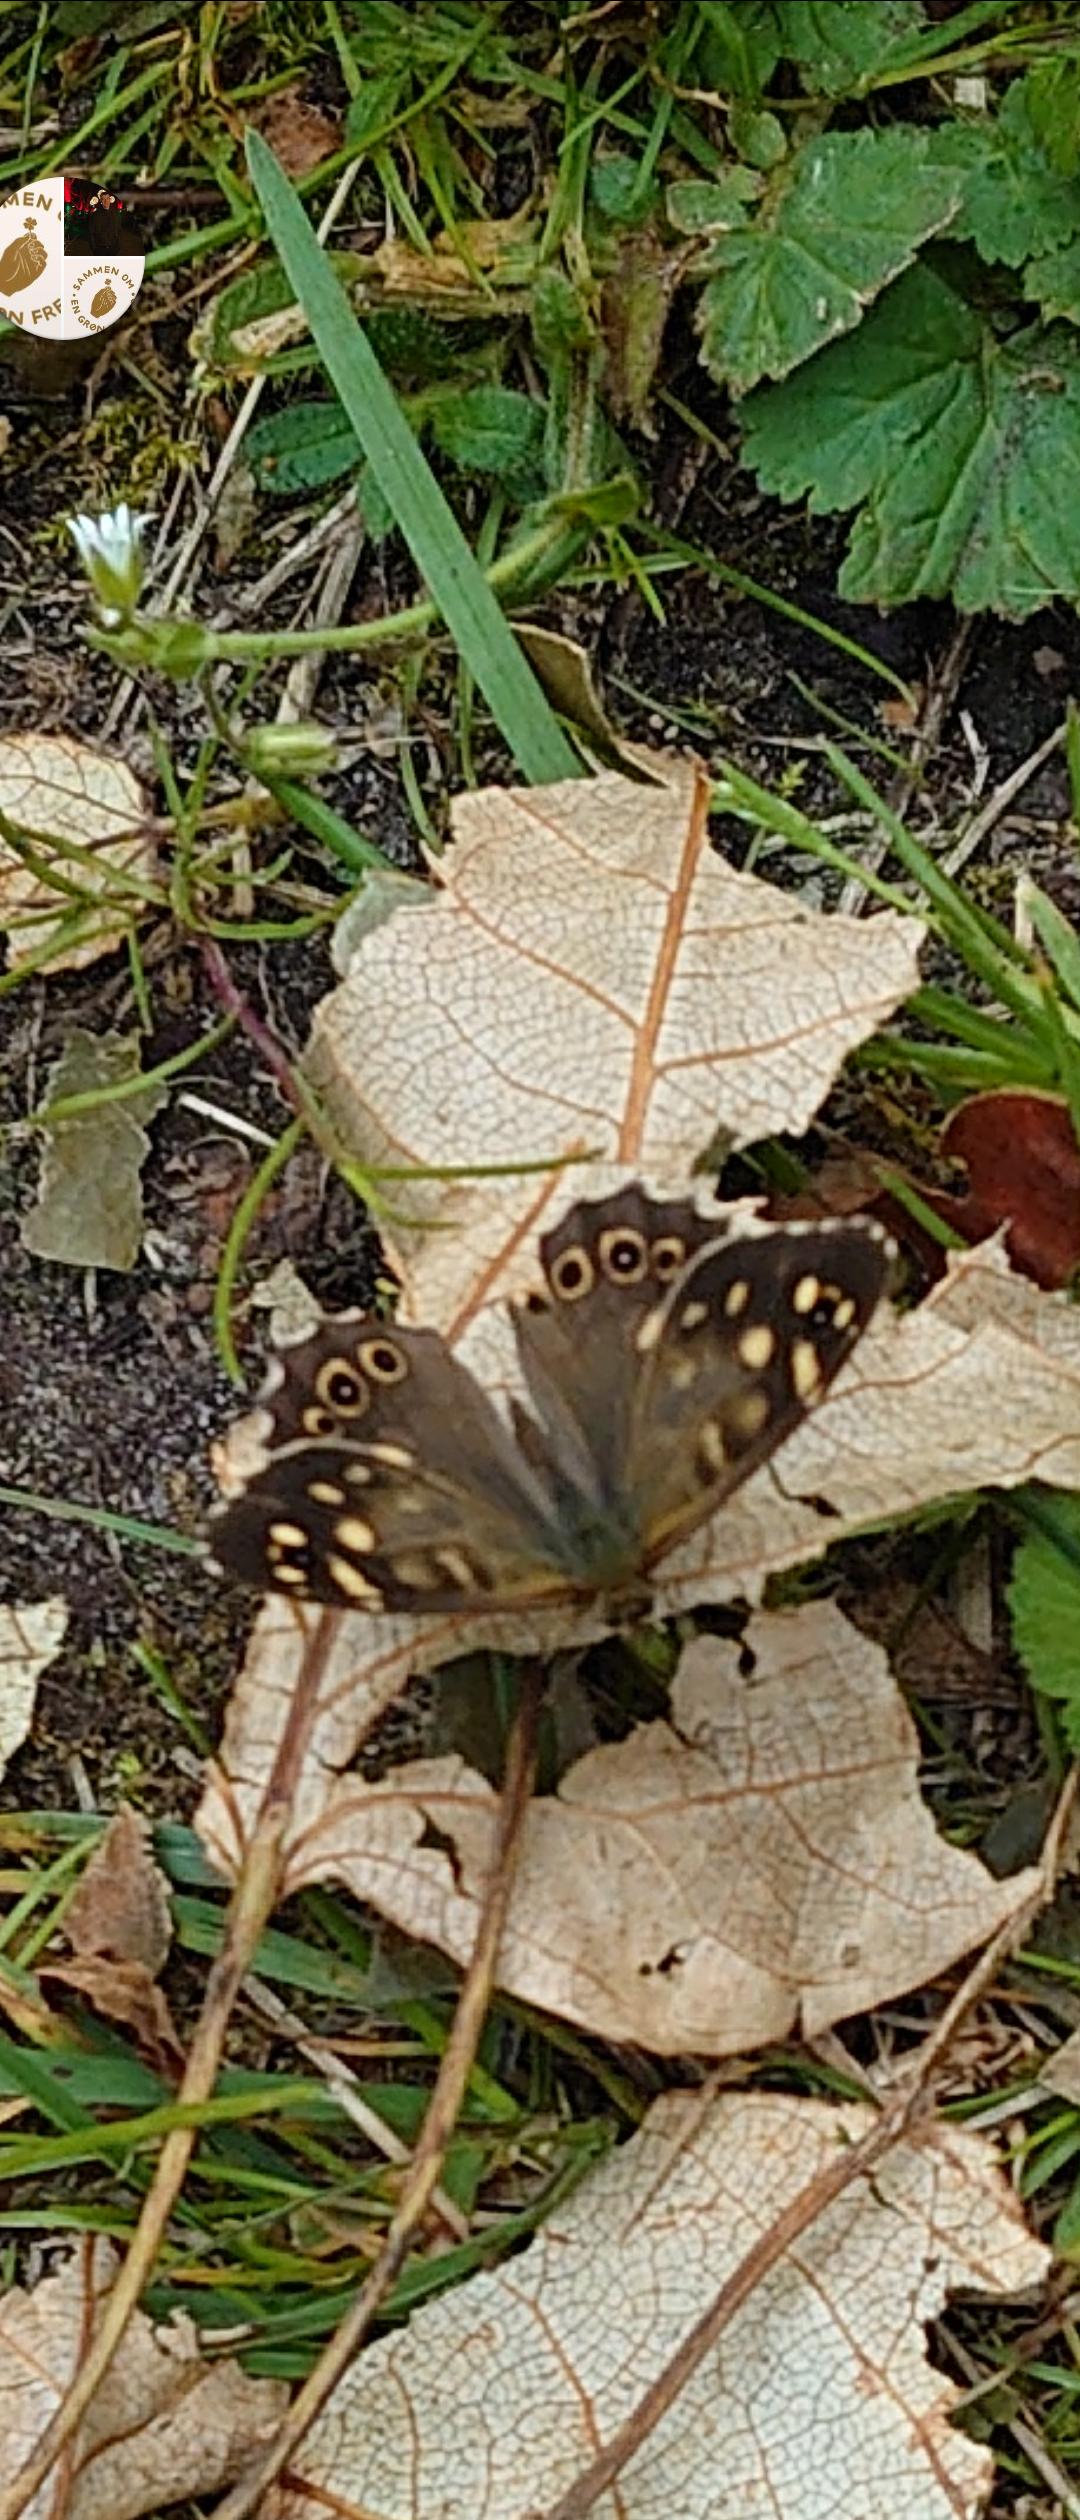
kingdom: Animalia
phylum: Arthropoda
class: Insecta
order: Lepidoptera
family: Nymphalidae
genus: Pararge
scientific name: Pararge aegeria
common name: Skovrandøje
